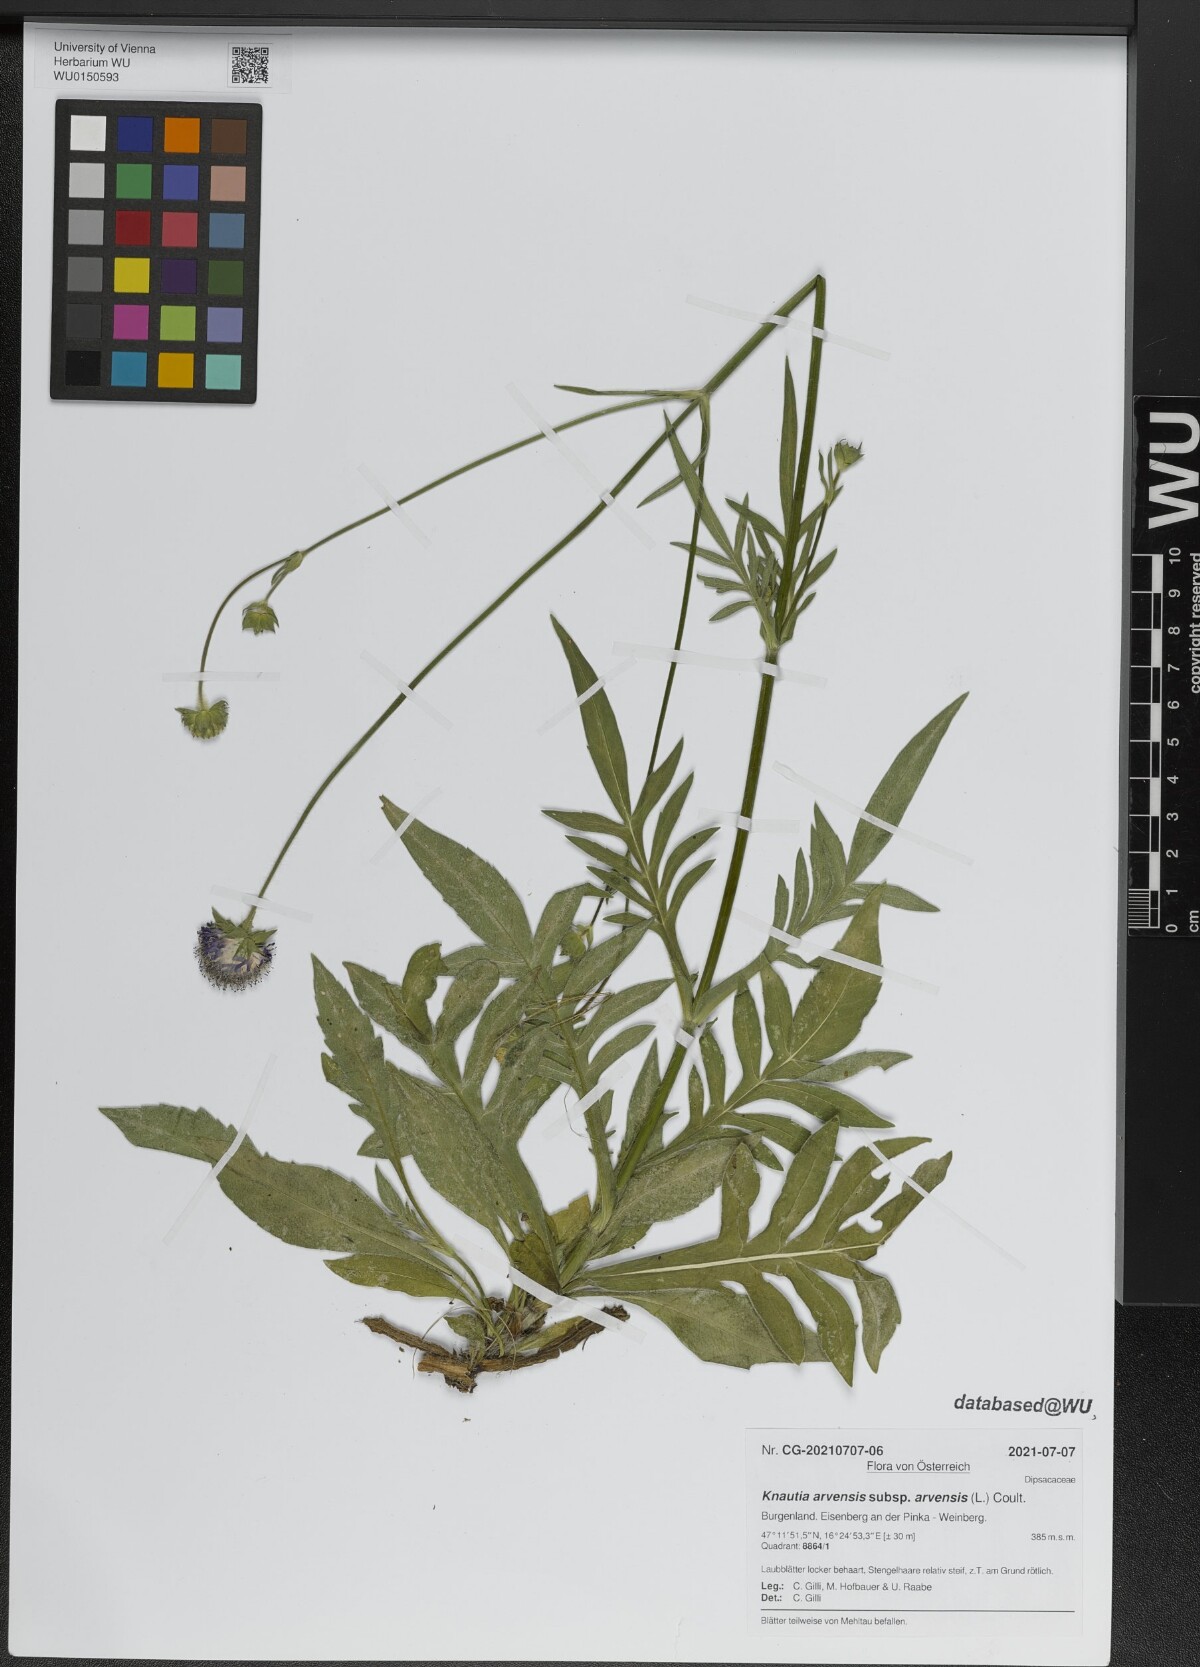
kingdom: Plantae
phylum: Tracheophyta
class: Magnoliopsida
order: Dipsacales
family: Caprifoliaceae
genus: Knautia
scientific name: Knautia arvensis
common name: Field scabiosa
